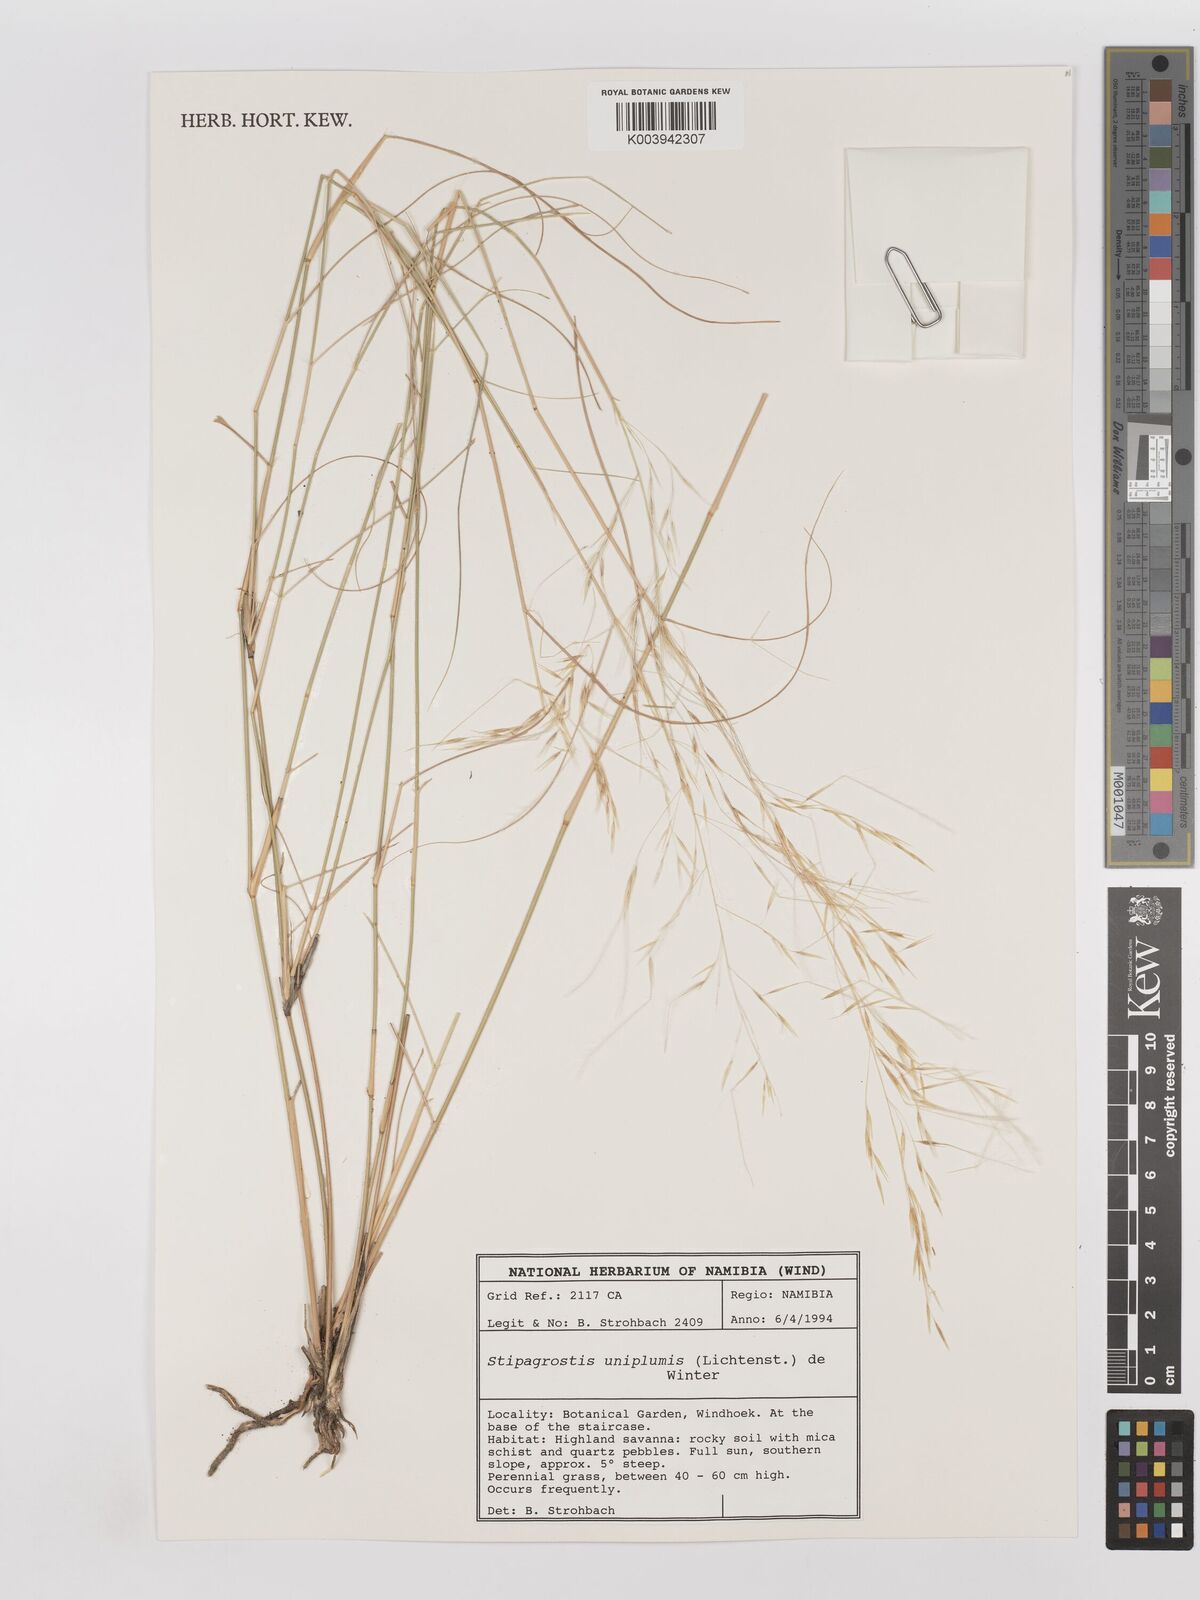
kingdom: Plantae
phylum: Tracheophyta
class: Liliopsida
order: Poales
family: Poaceae
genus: Stipagrostis
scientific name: Stipagrostis uniplumis
